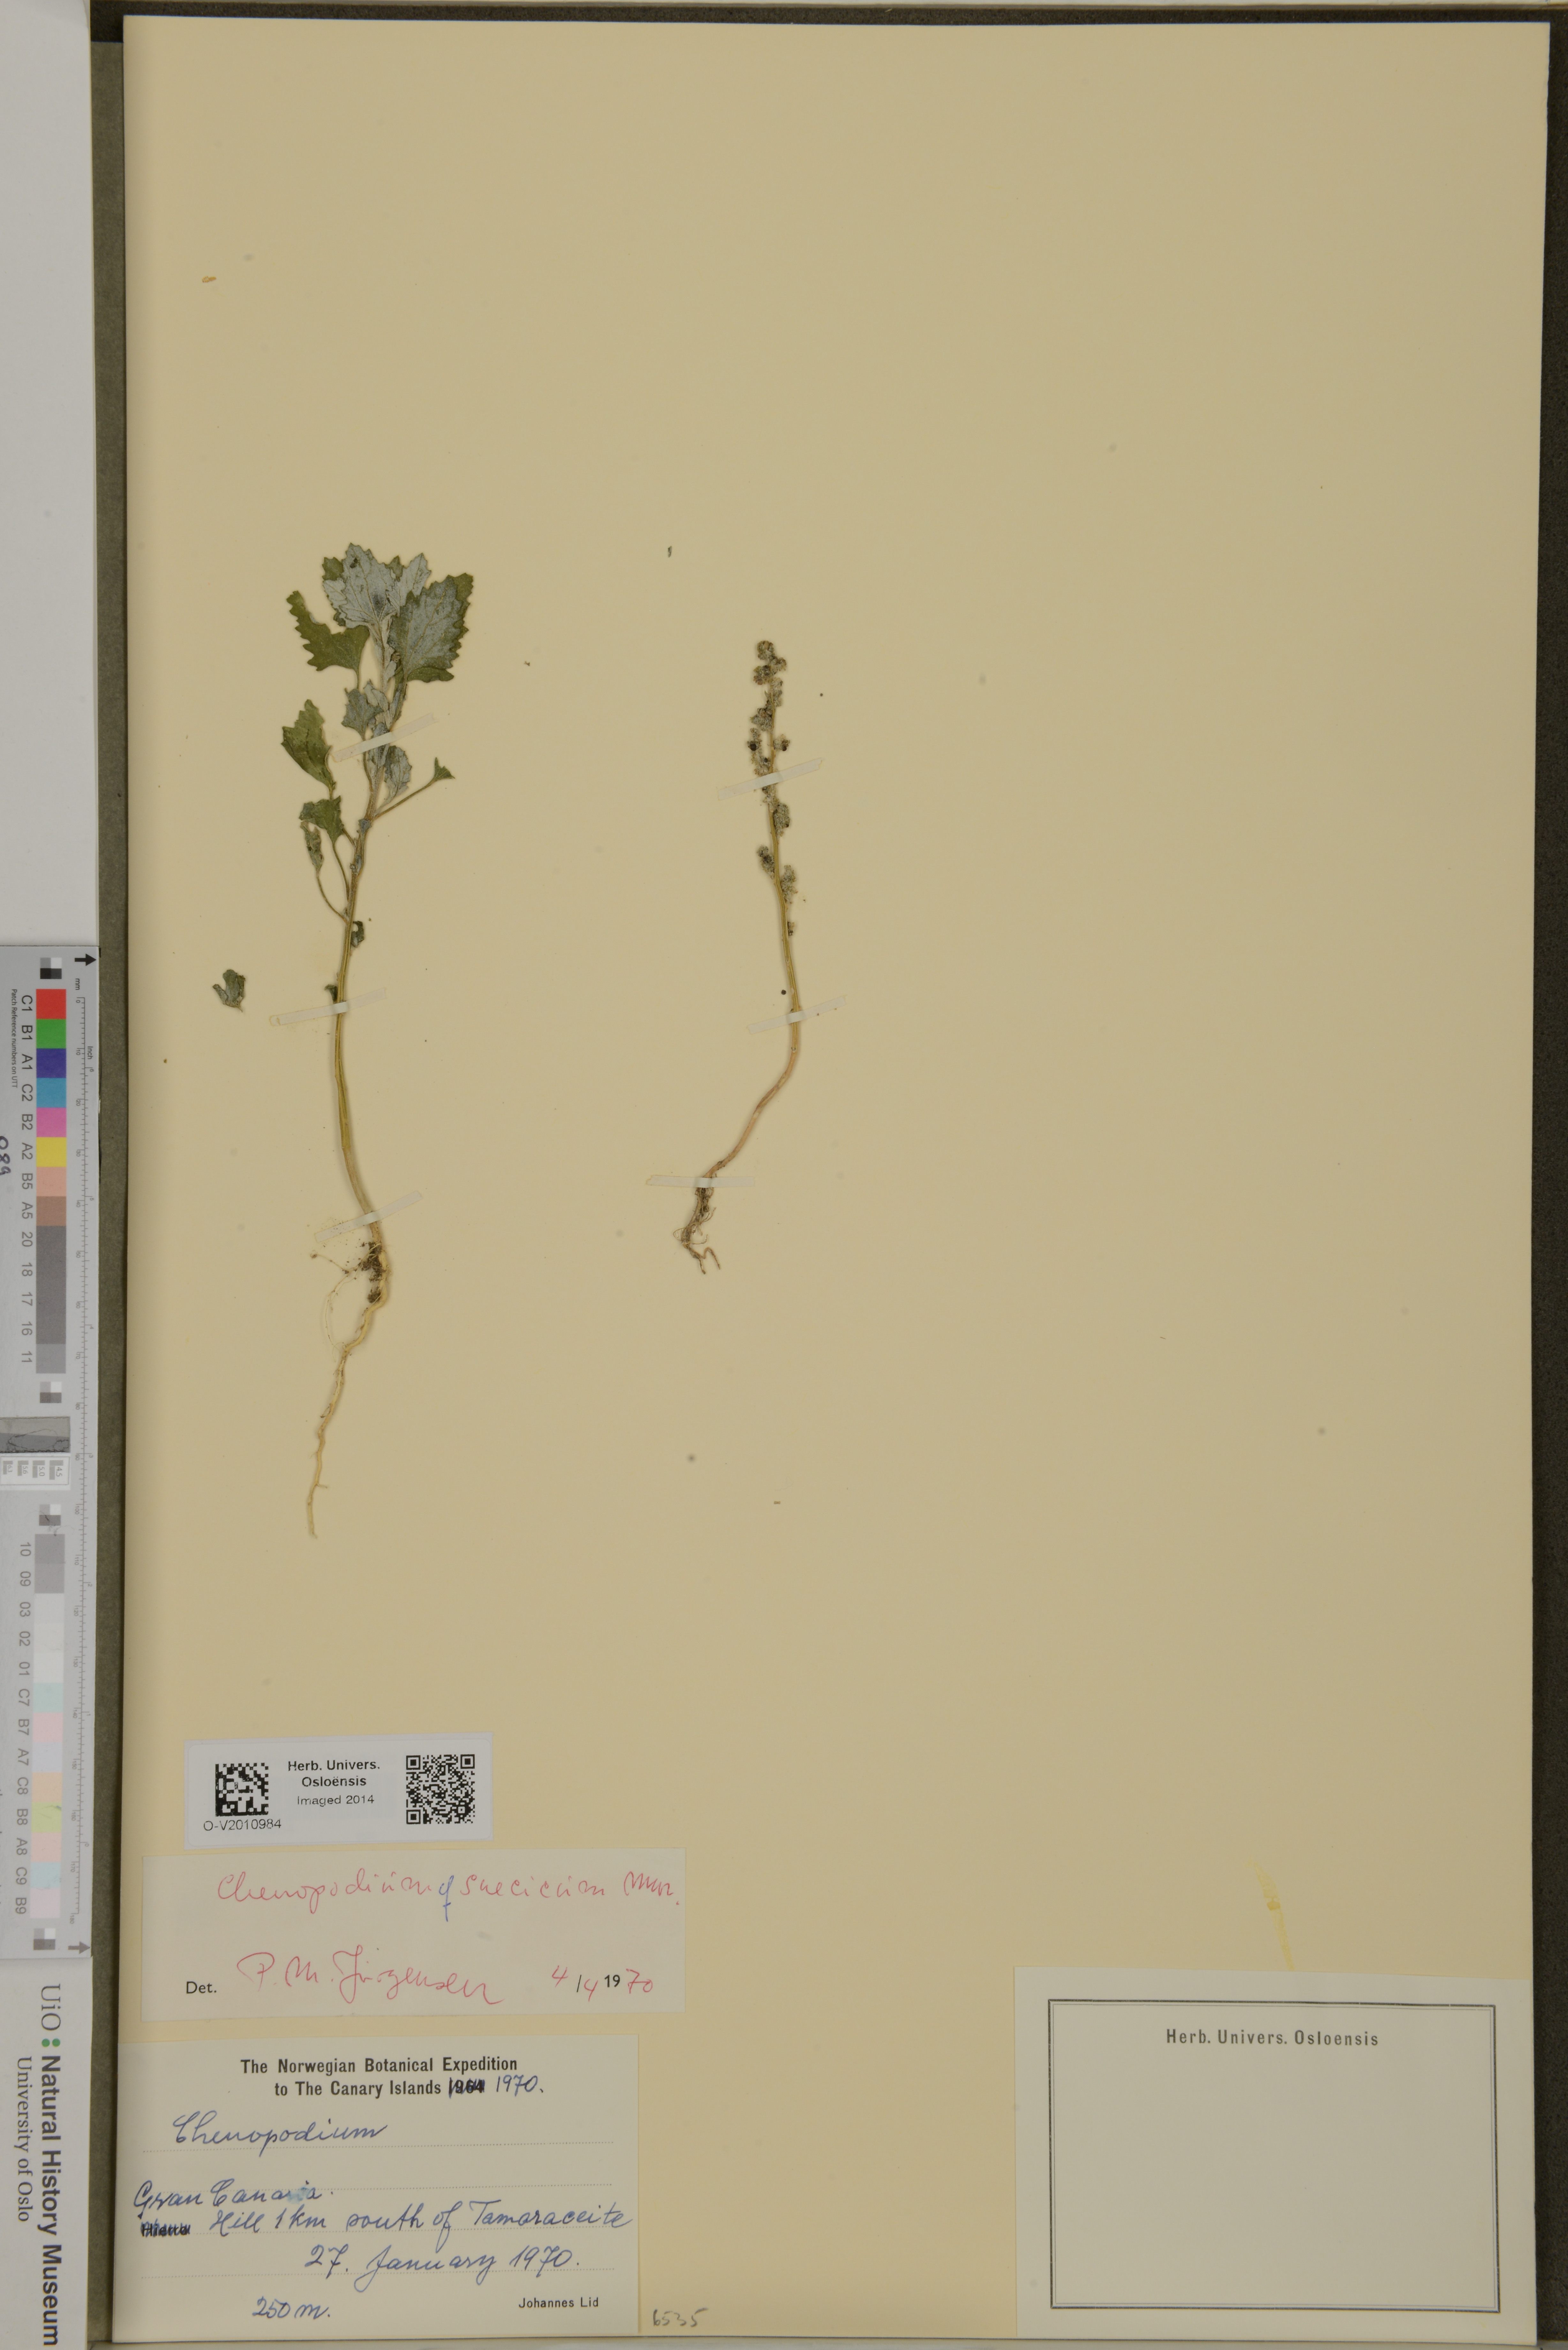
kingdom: Plantae
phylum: Tracheophyta
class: Magnoliopsida
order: Caryophyllales
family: Amaranthaceae
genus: Chenopodium
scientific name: Chenopodium suecicum
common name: Swedish goosefoot
